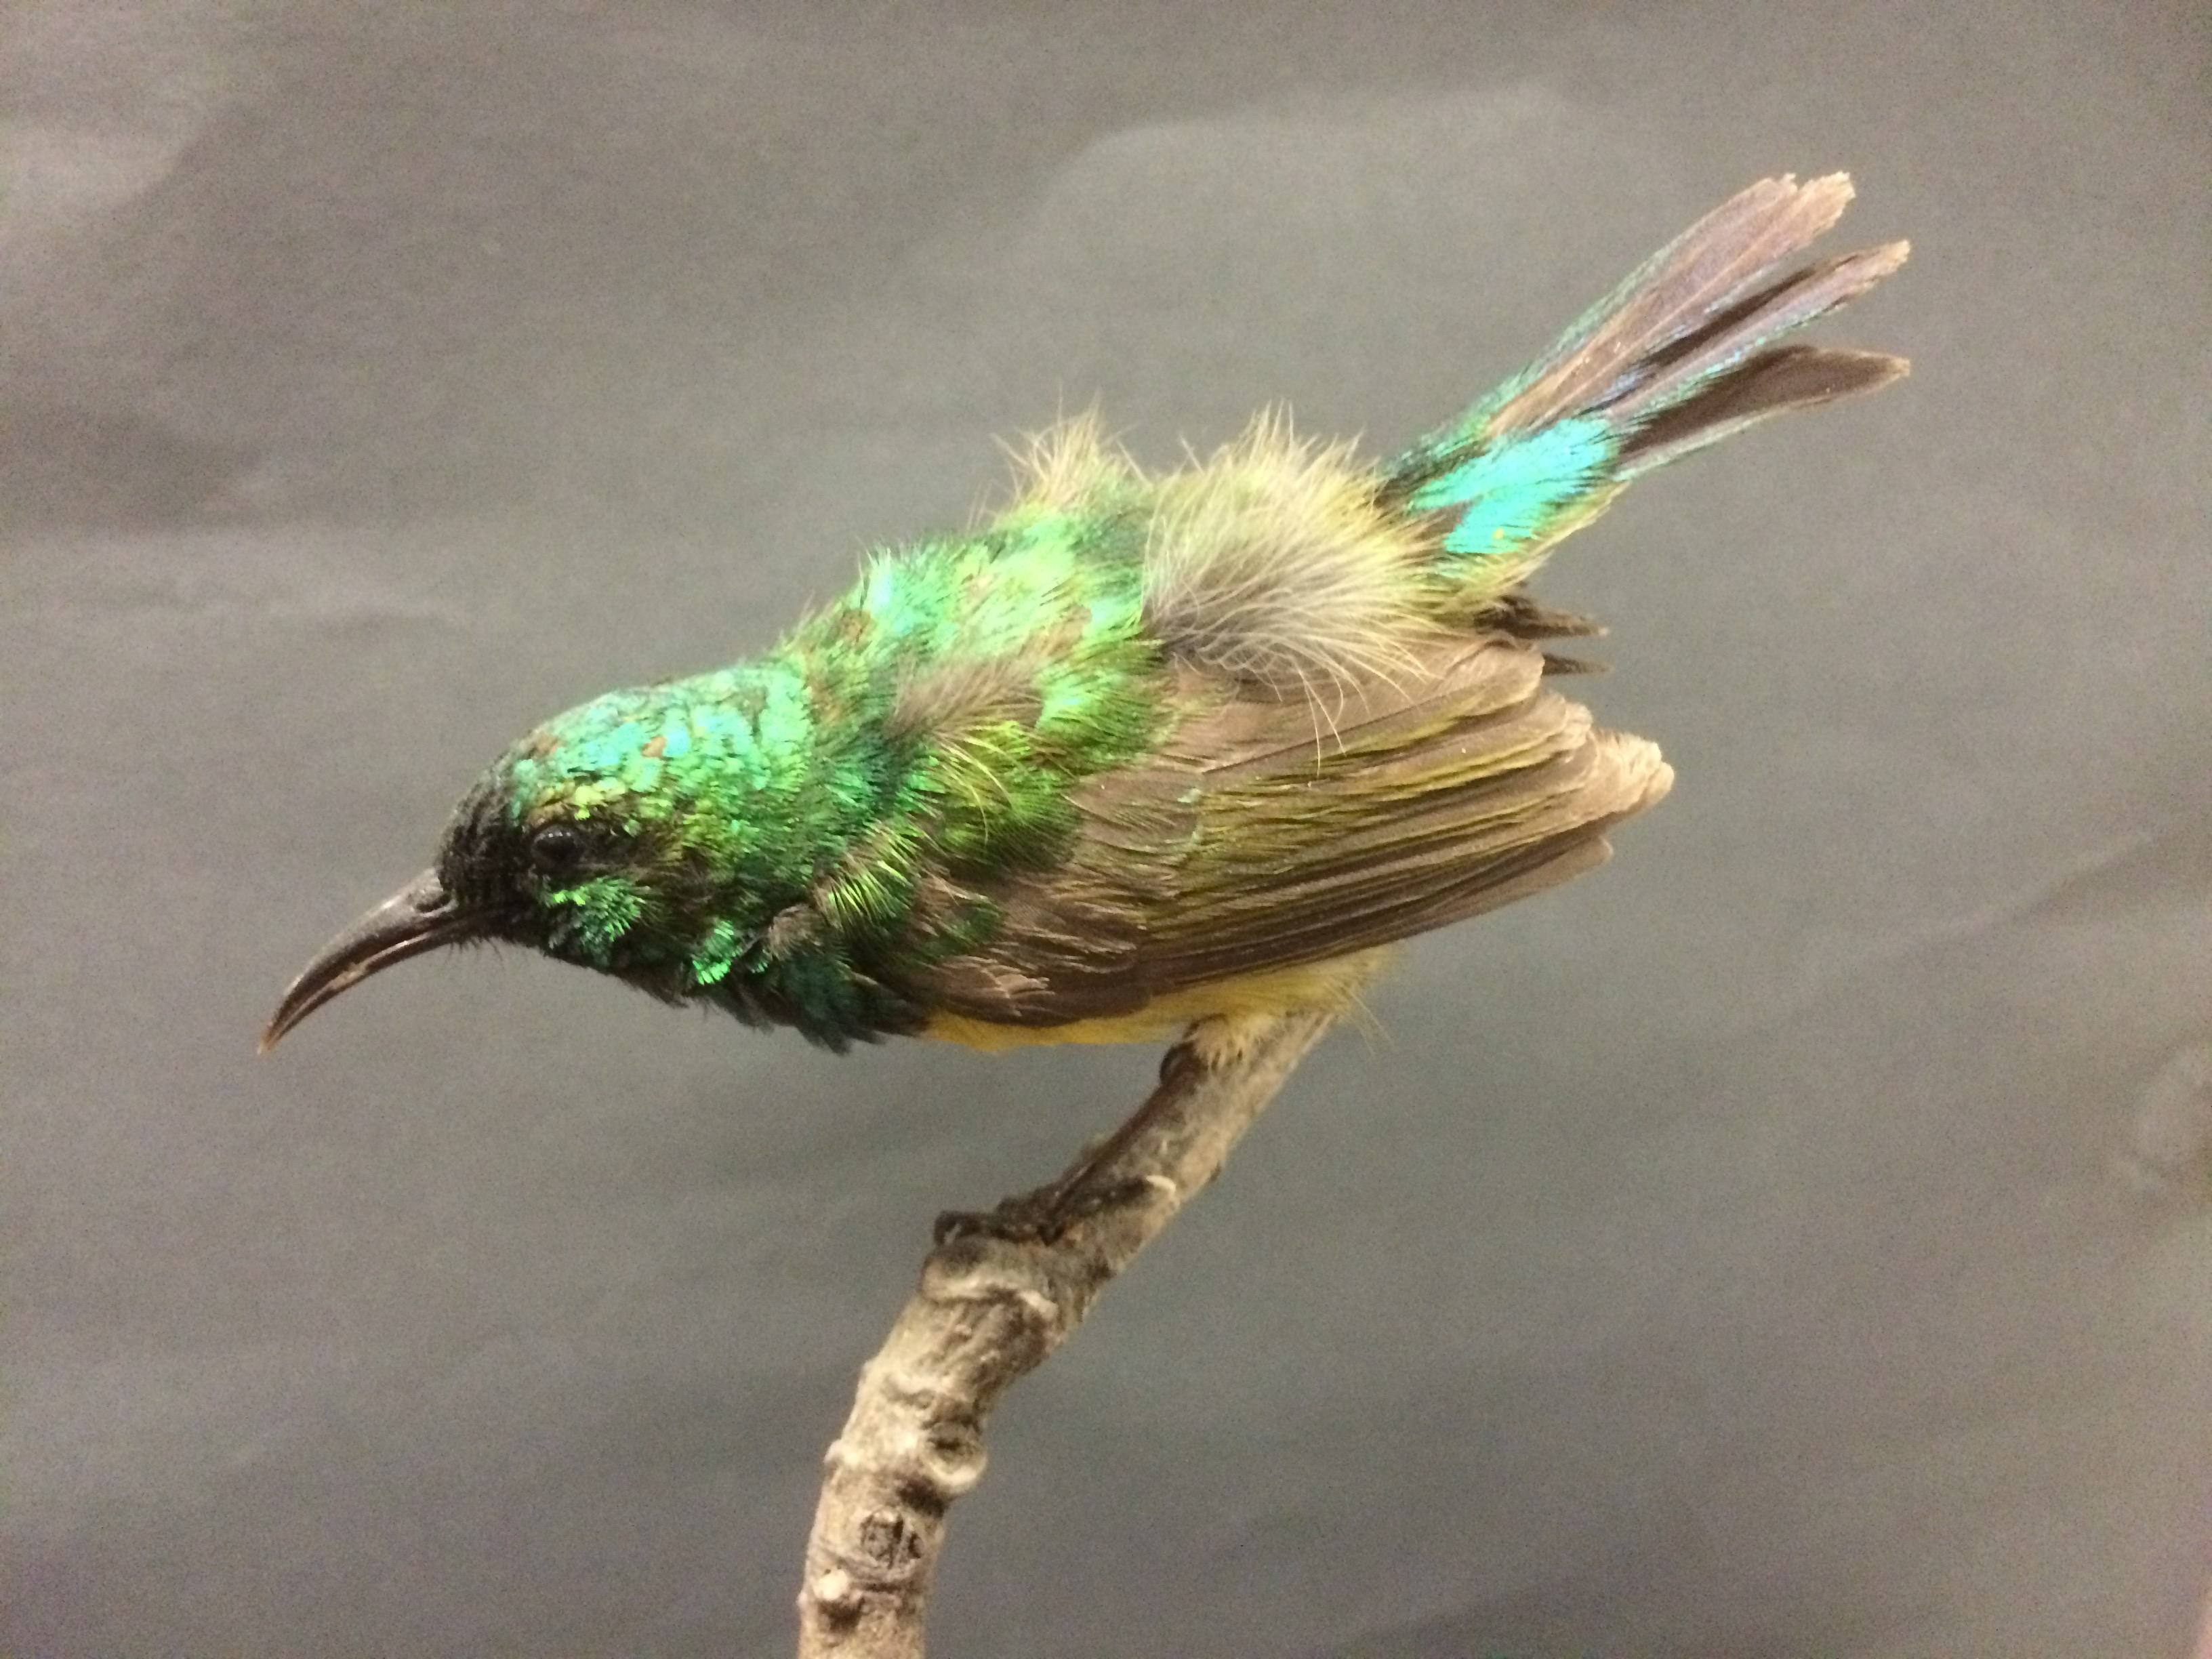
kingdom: Animalia
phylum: Chordata
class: Aves
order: Passeriformes
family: Nectariniidae
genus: Hedydipna
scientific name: Hedydipna collaris
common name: Collared sunbird
